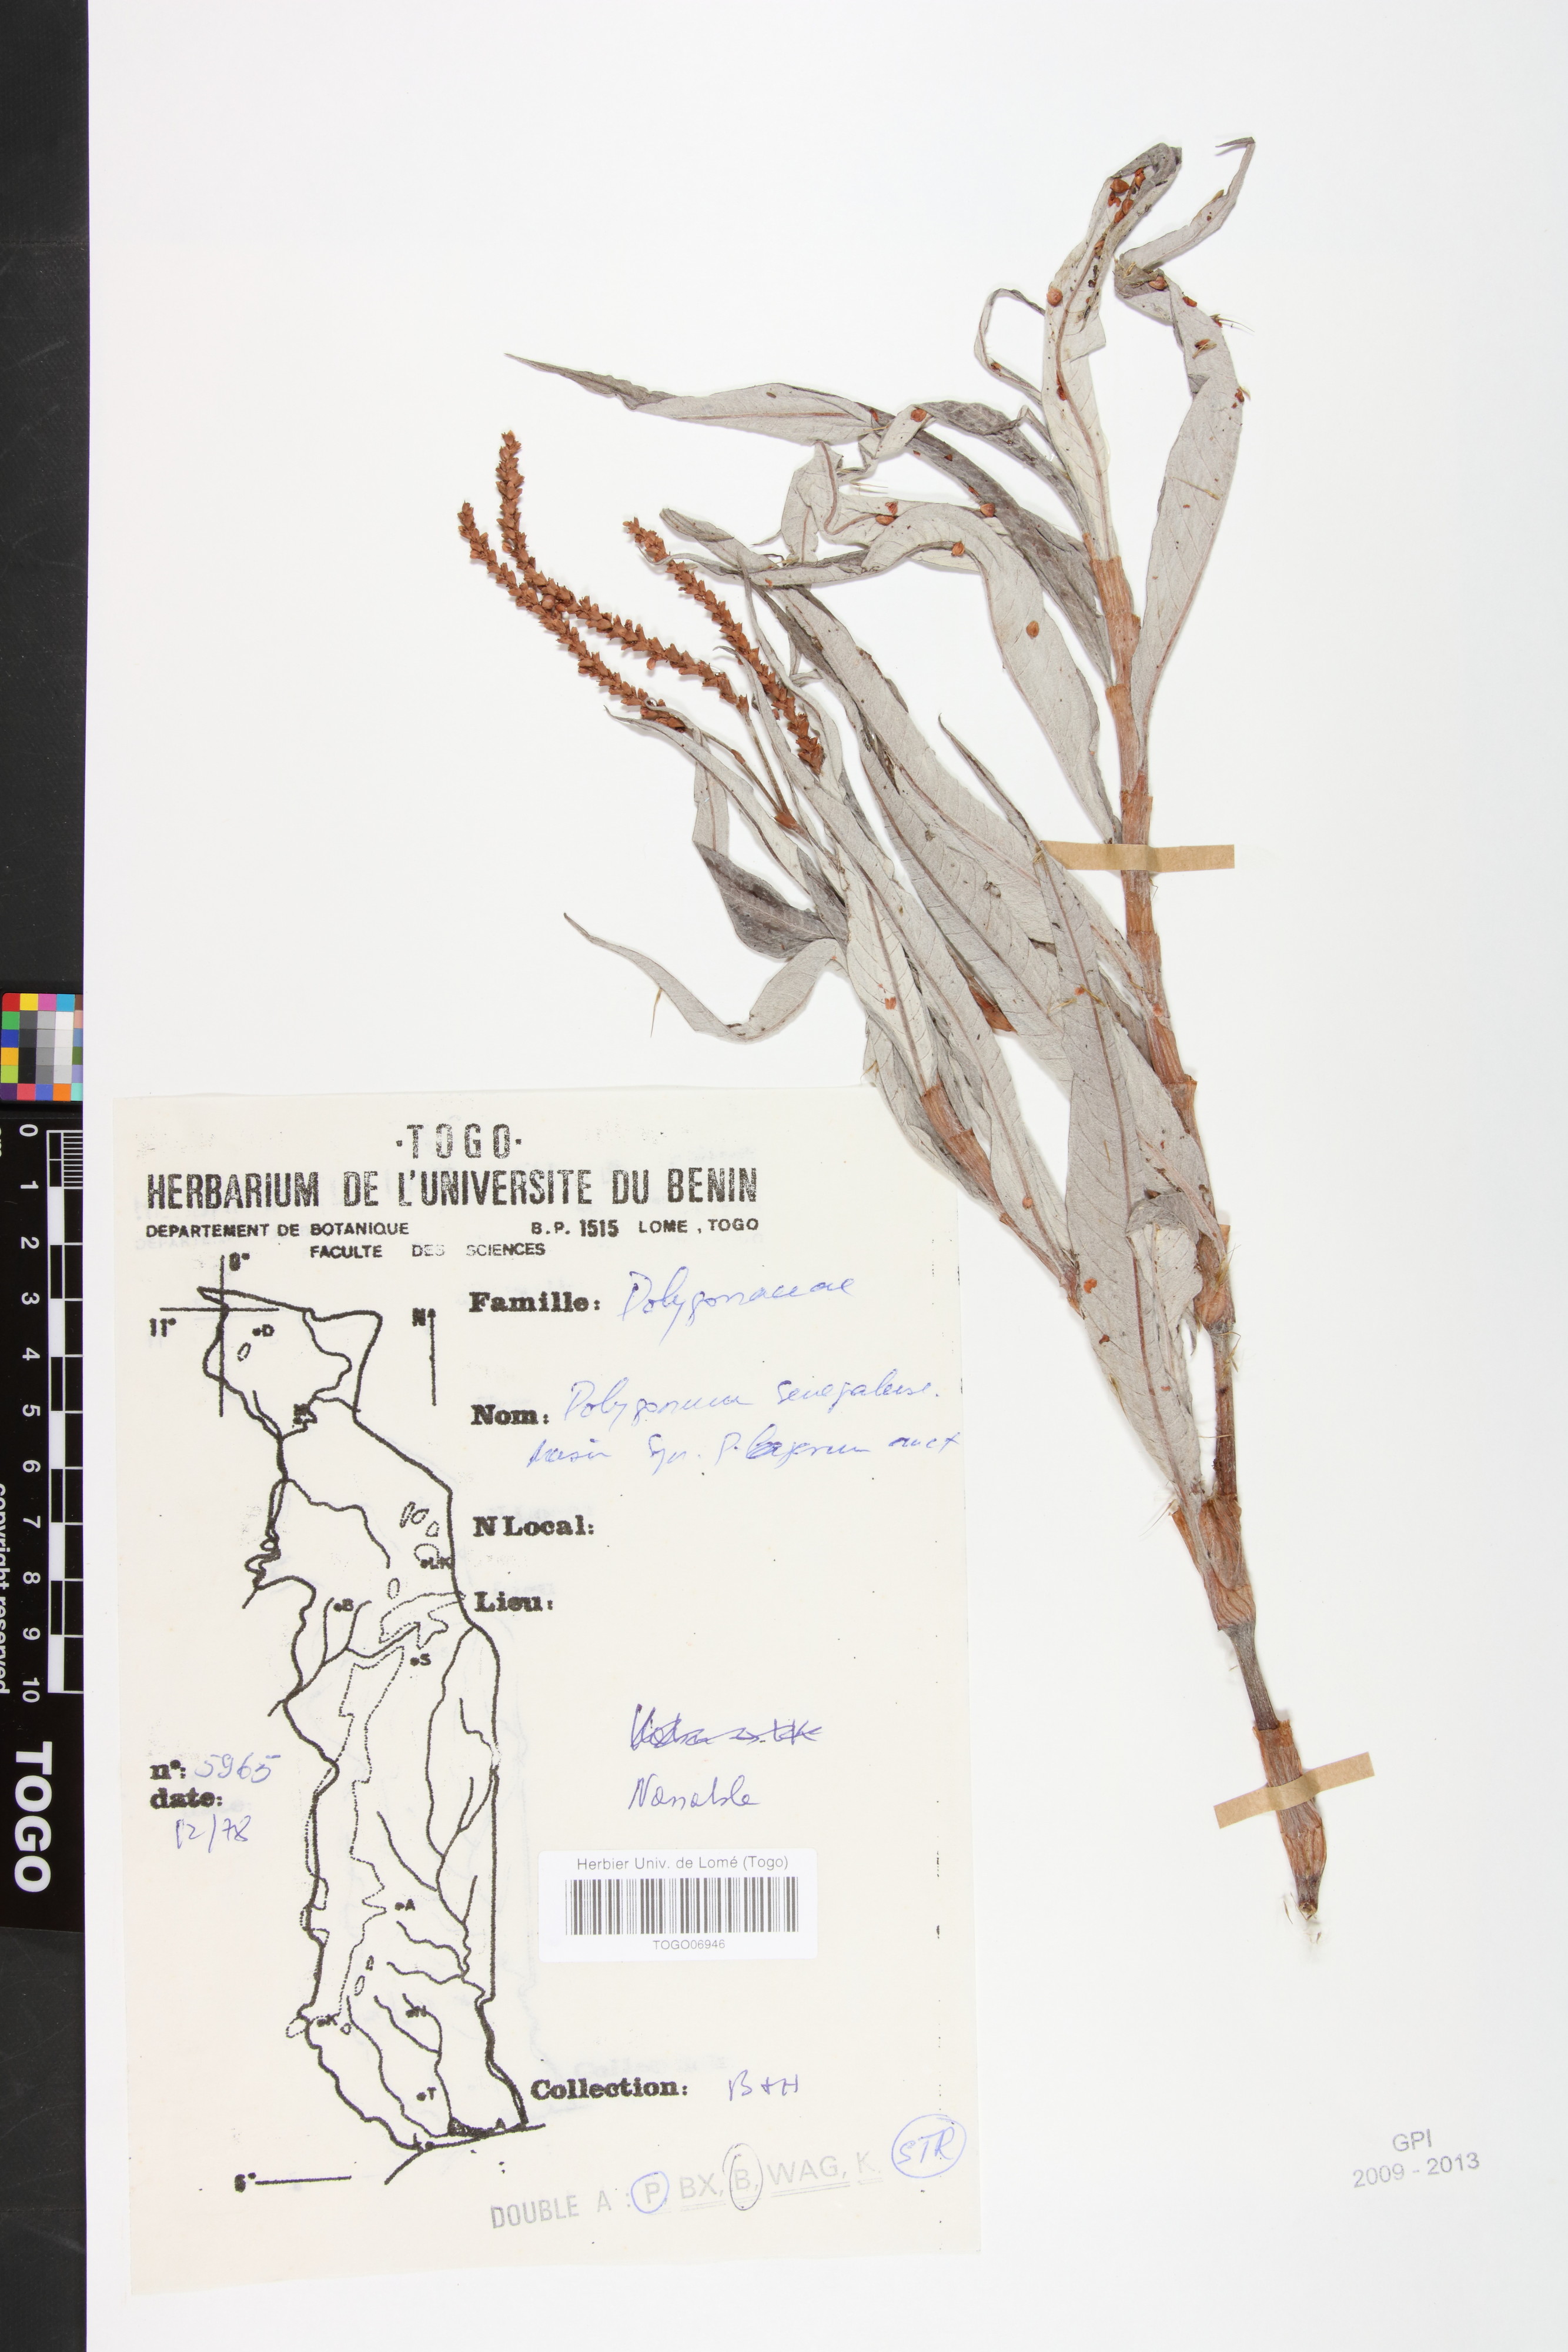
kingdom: Plantae
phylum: Tracheophyta
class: Magnoliopsida
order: Caryophyllales
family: Polygonaceae
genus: Persicaria
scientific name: Persicaria salicifolia
